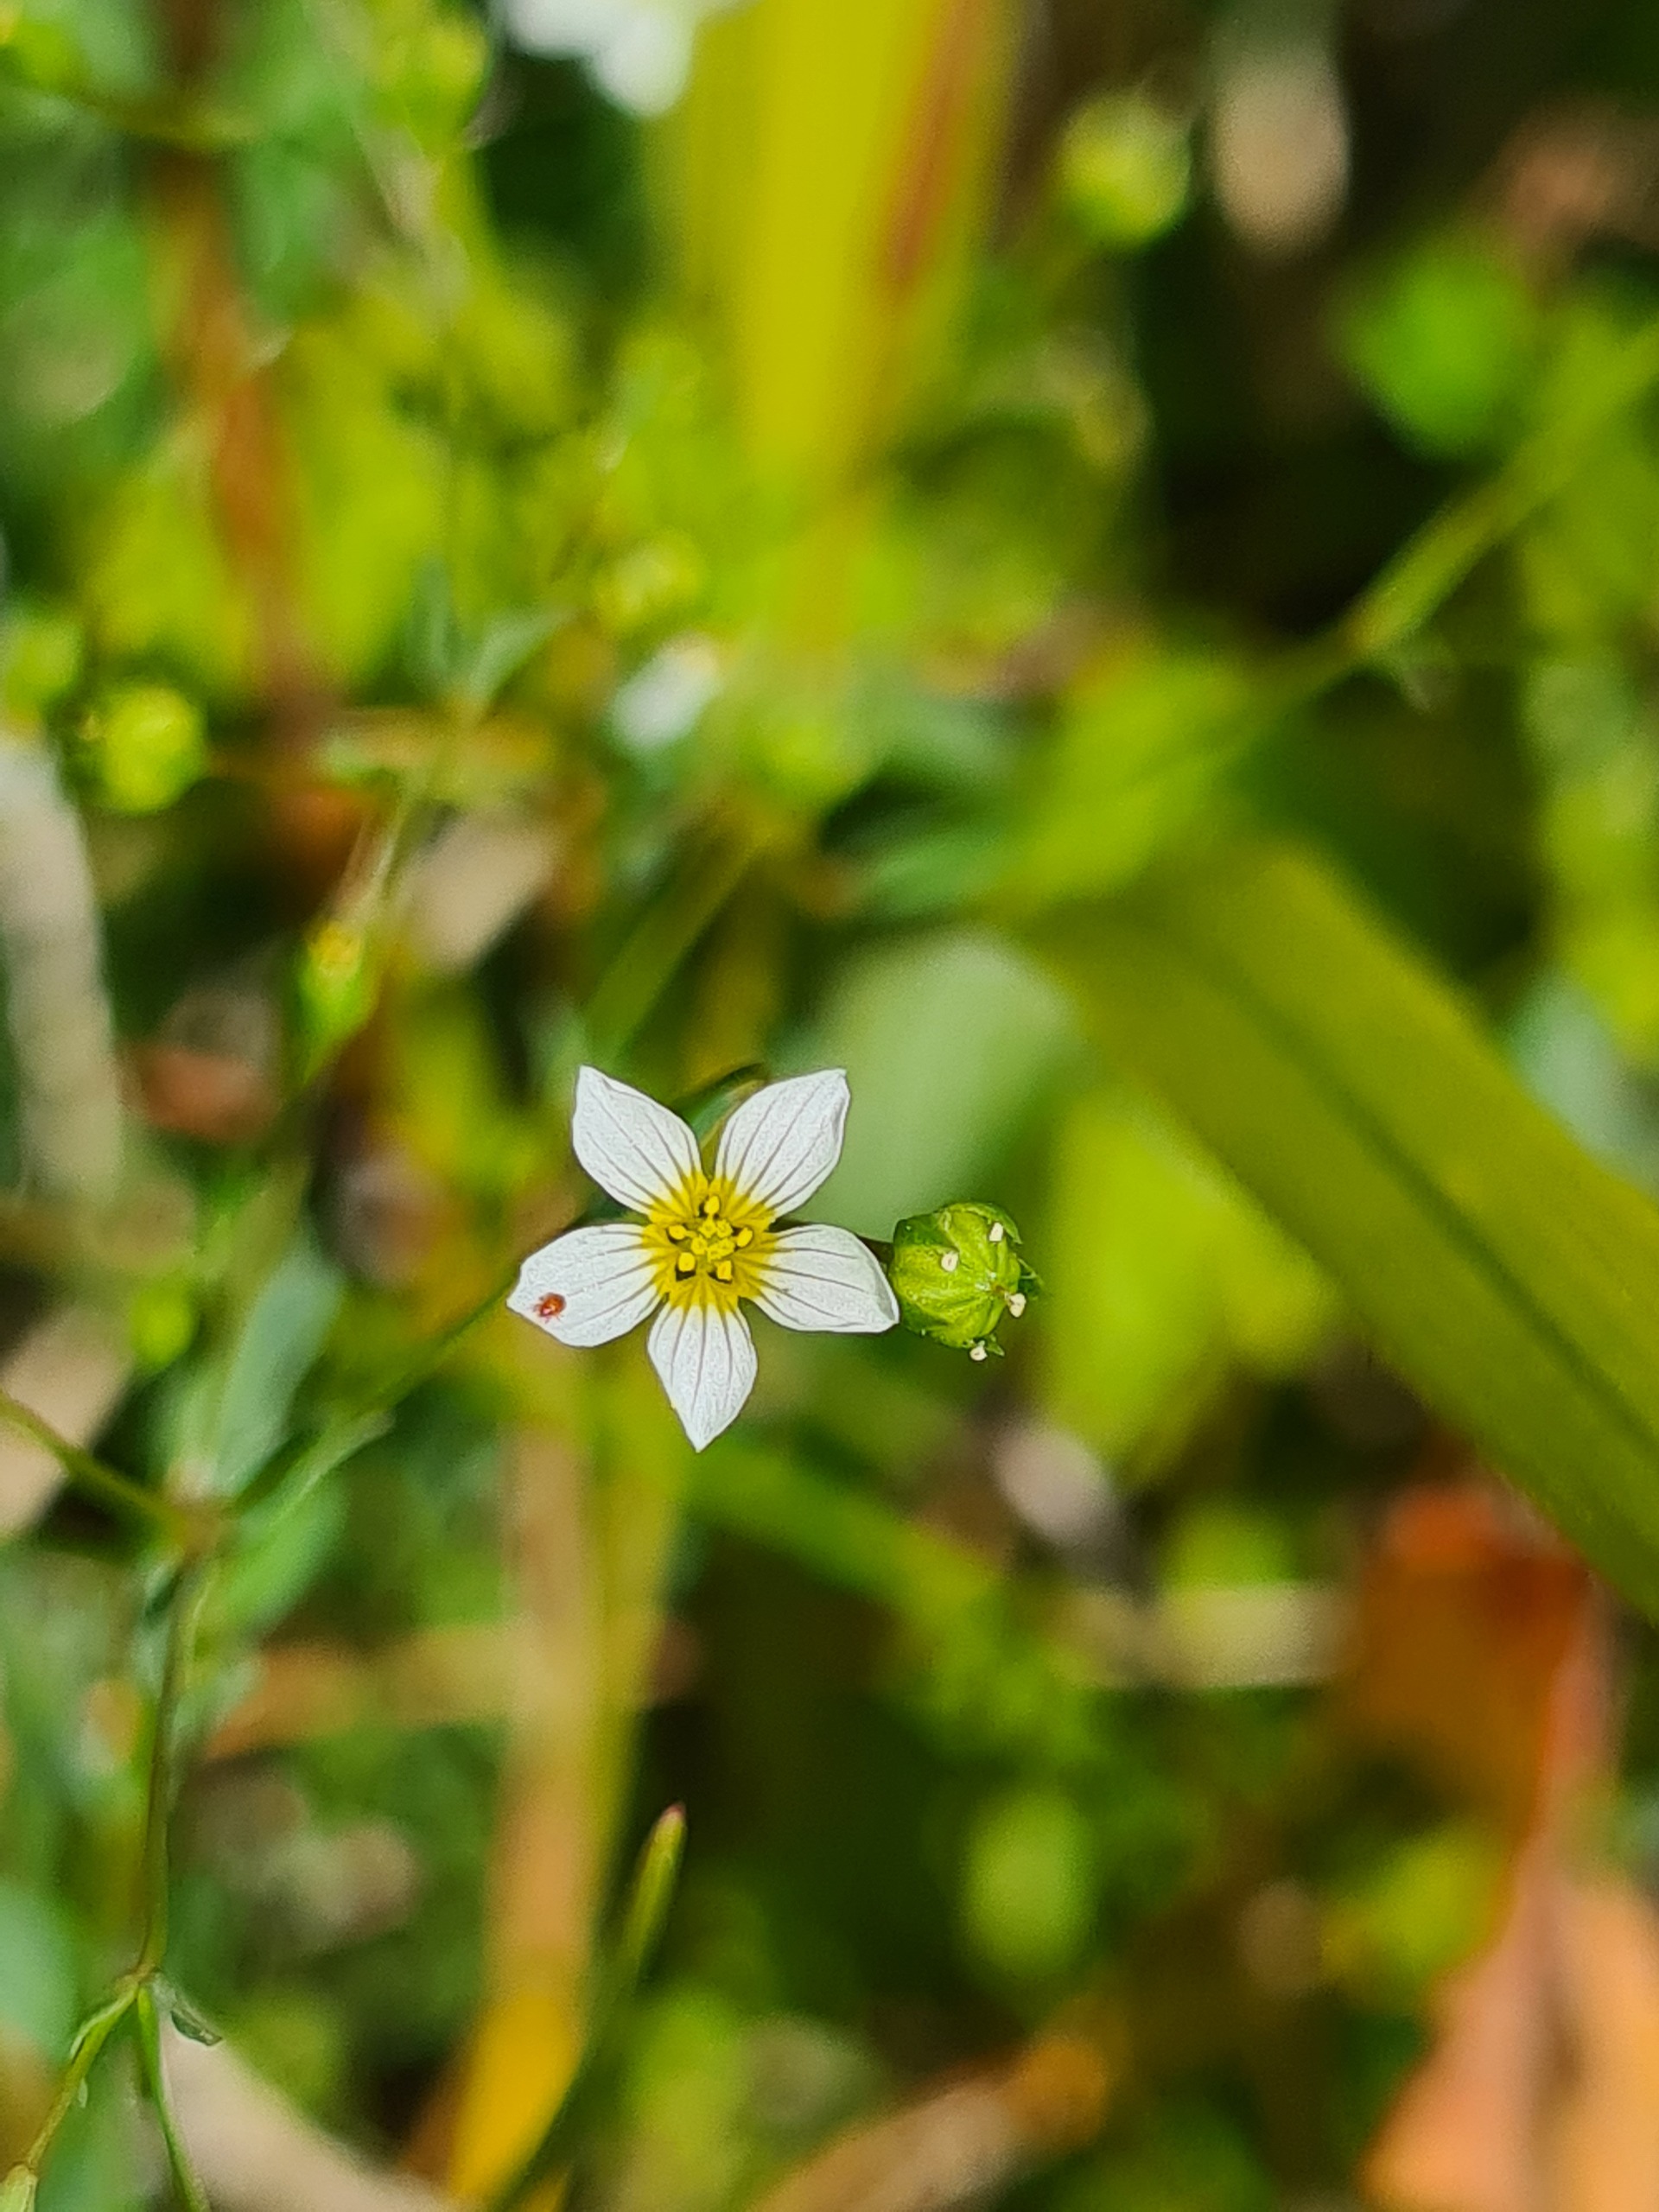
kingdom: Plantae
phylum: Tracheophyta
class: Magnoliopsida
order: Malpighiales
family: Linaceae
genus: Linum
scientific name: Linum catharticum
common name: Vild hør
